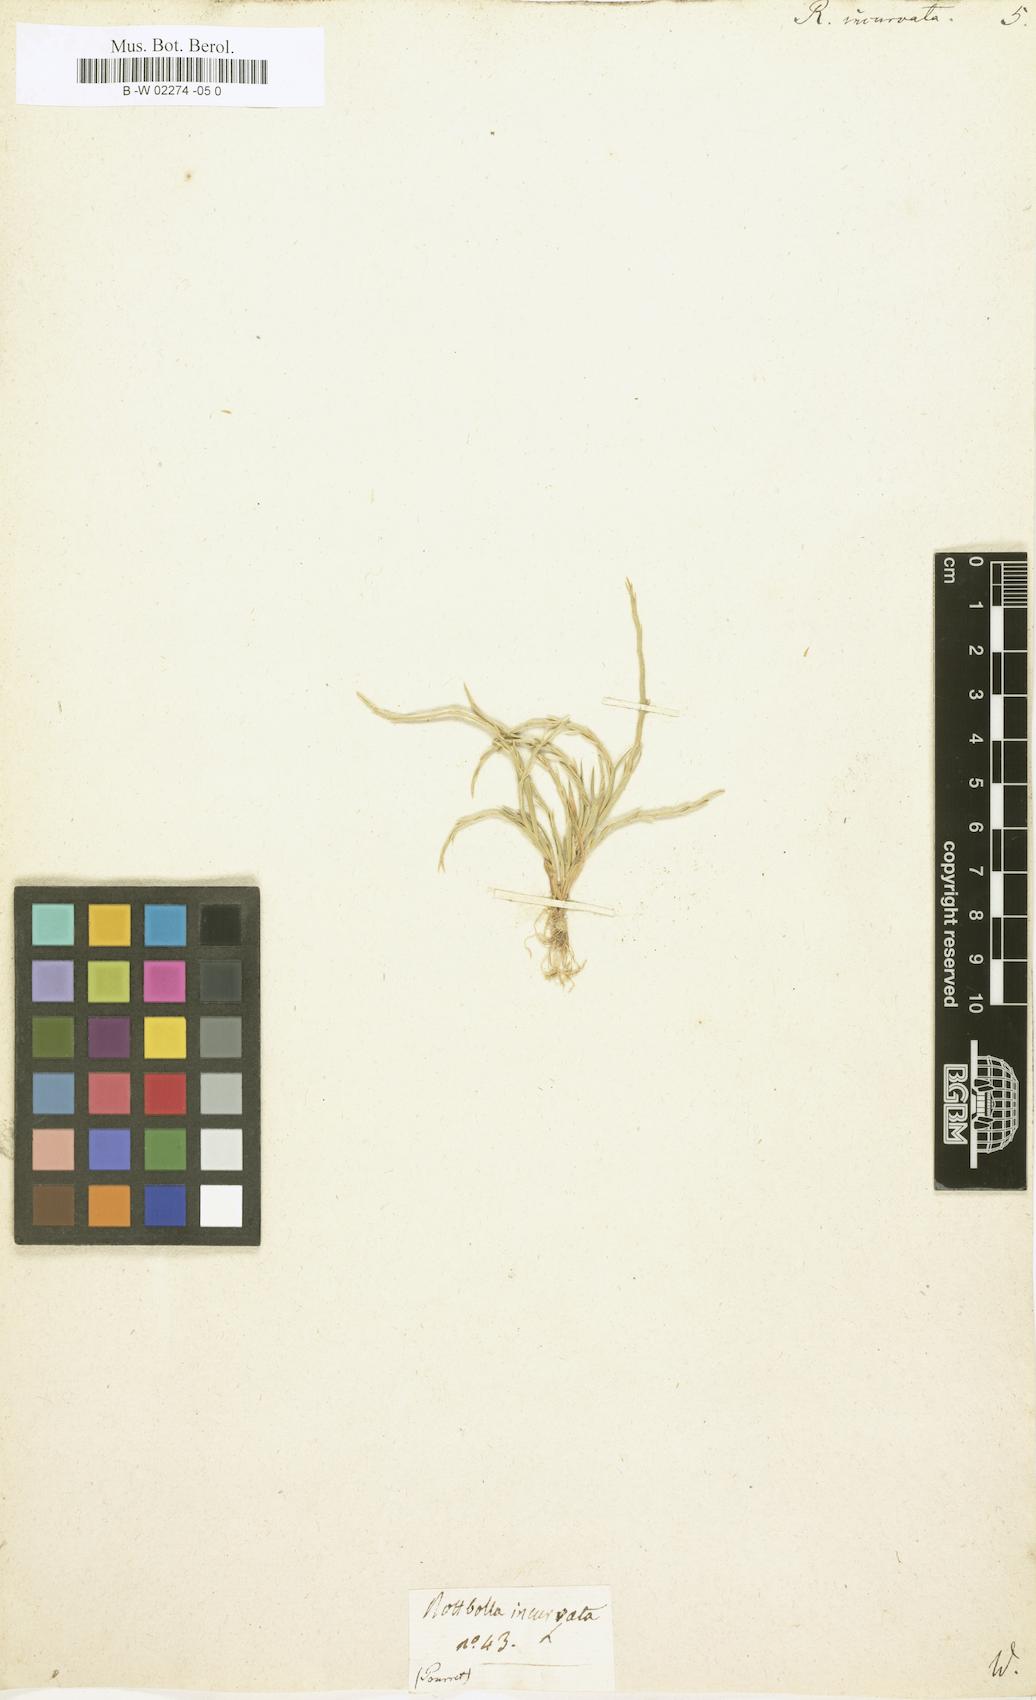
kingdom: Plantae
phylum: Tracheophyta
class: Liliopsida
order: Poales
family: Poaceae
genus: Rottboellia
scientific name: Rottboellia incurvata
